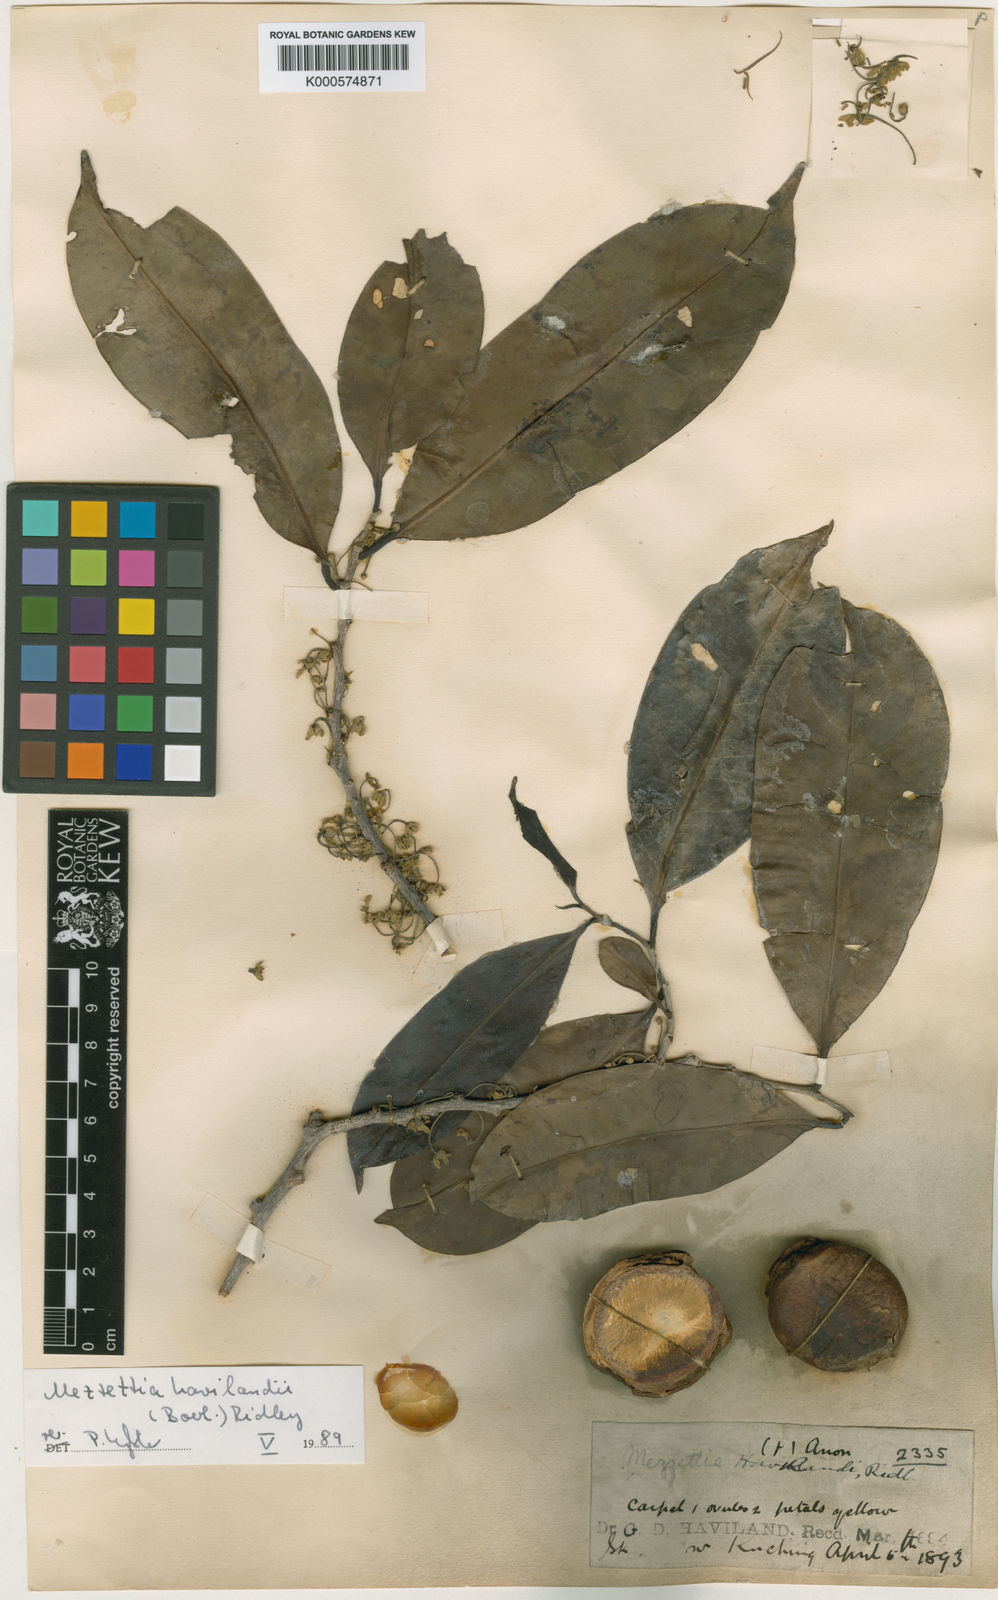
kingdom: Plantae
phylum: Tracheophyta
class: Magnoliopsida
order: Magnoliales
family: Annonaceae
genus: Mezzettia
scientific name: Mezzettia havilandii
